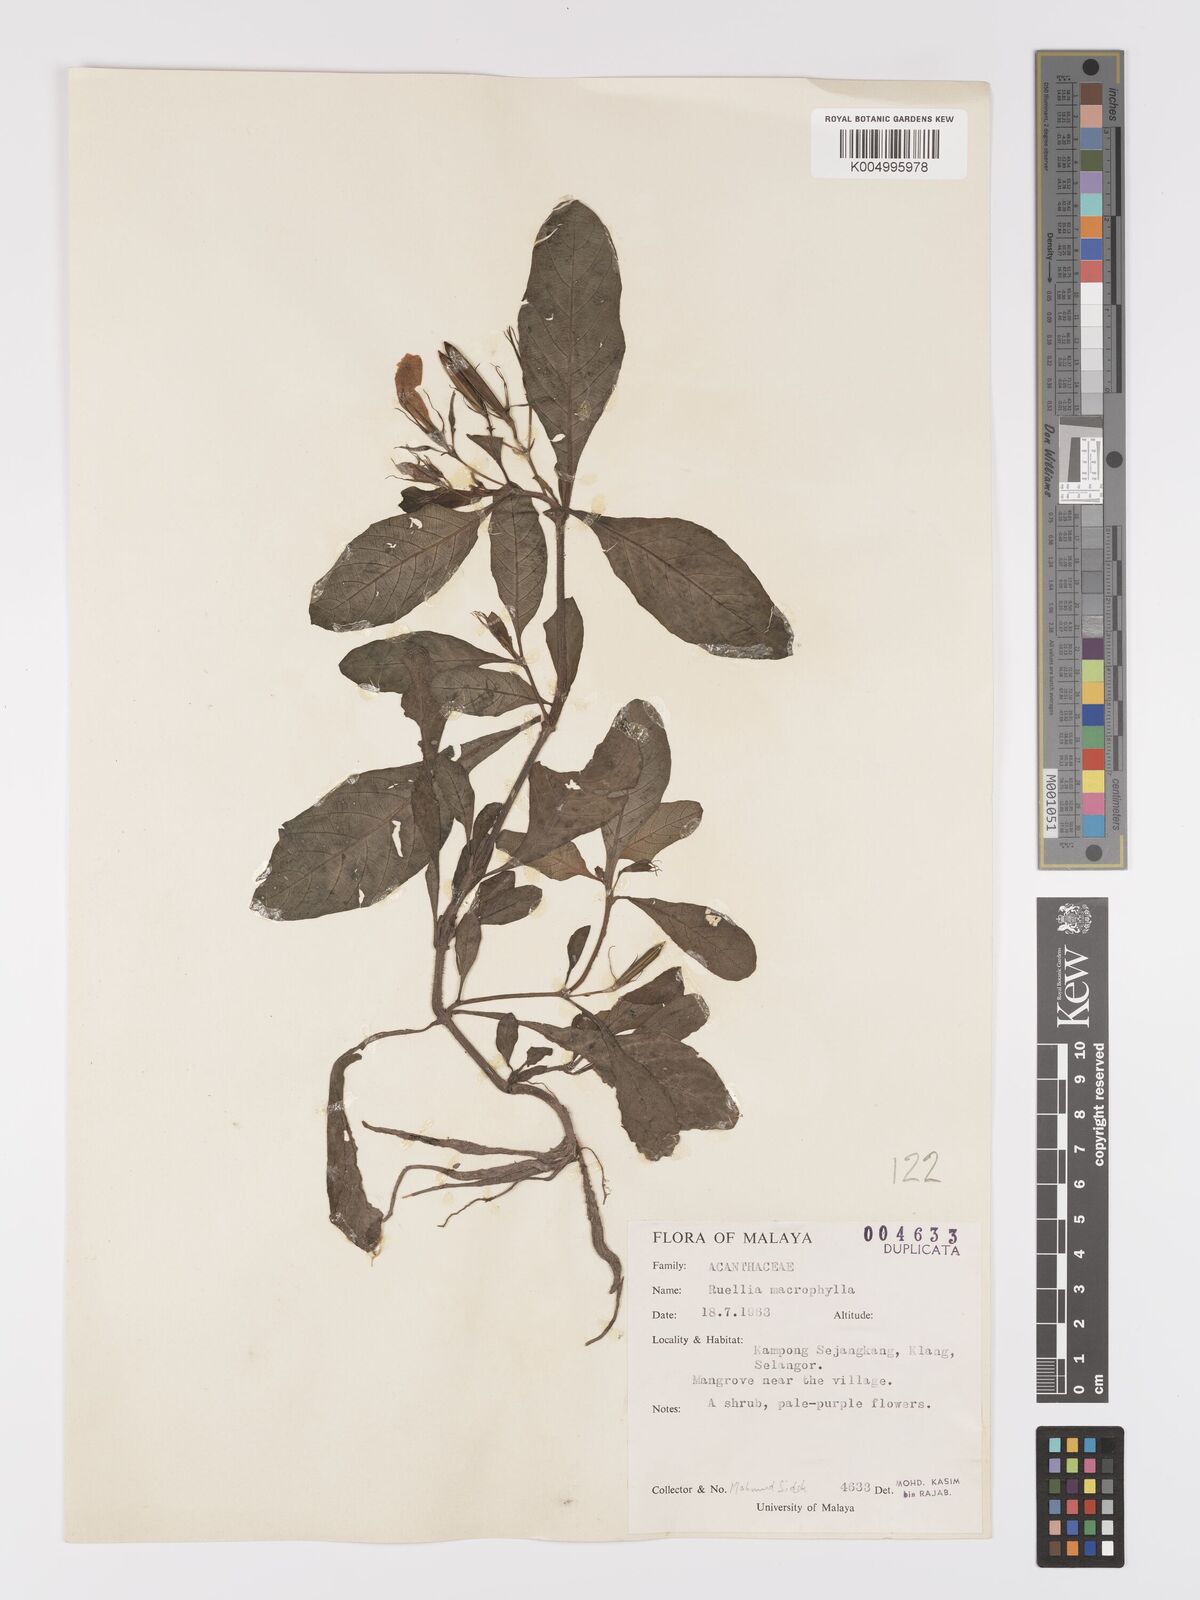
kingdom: Plantae
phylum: Tracheophyta
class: Magnoliopsida
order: Lamiales
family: Acanthaceae
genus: Ruellia
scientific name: Ruellia
